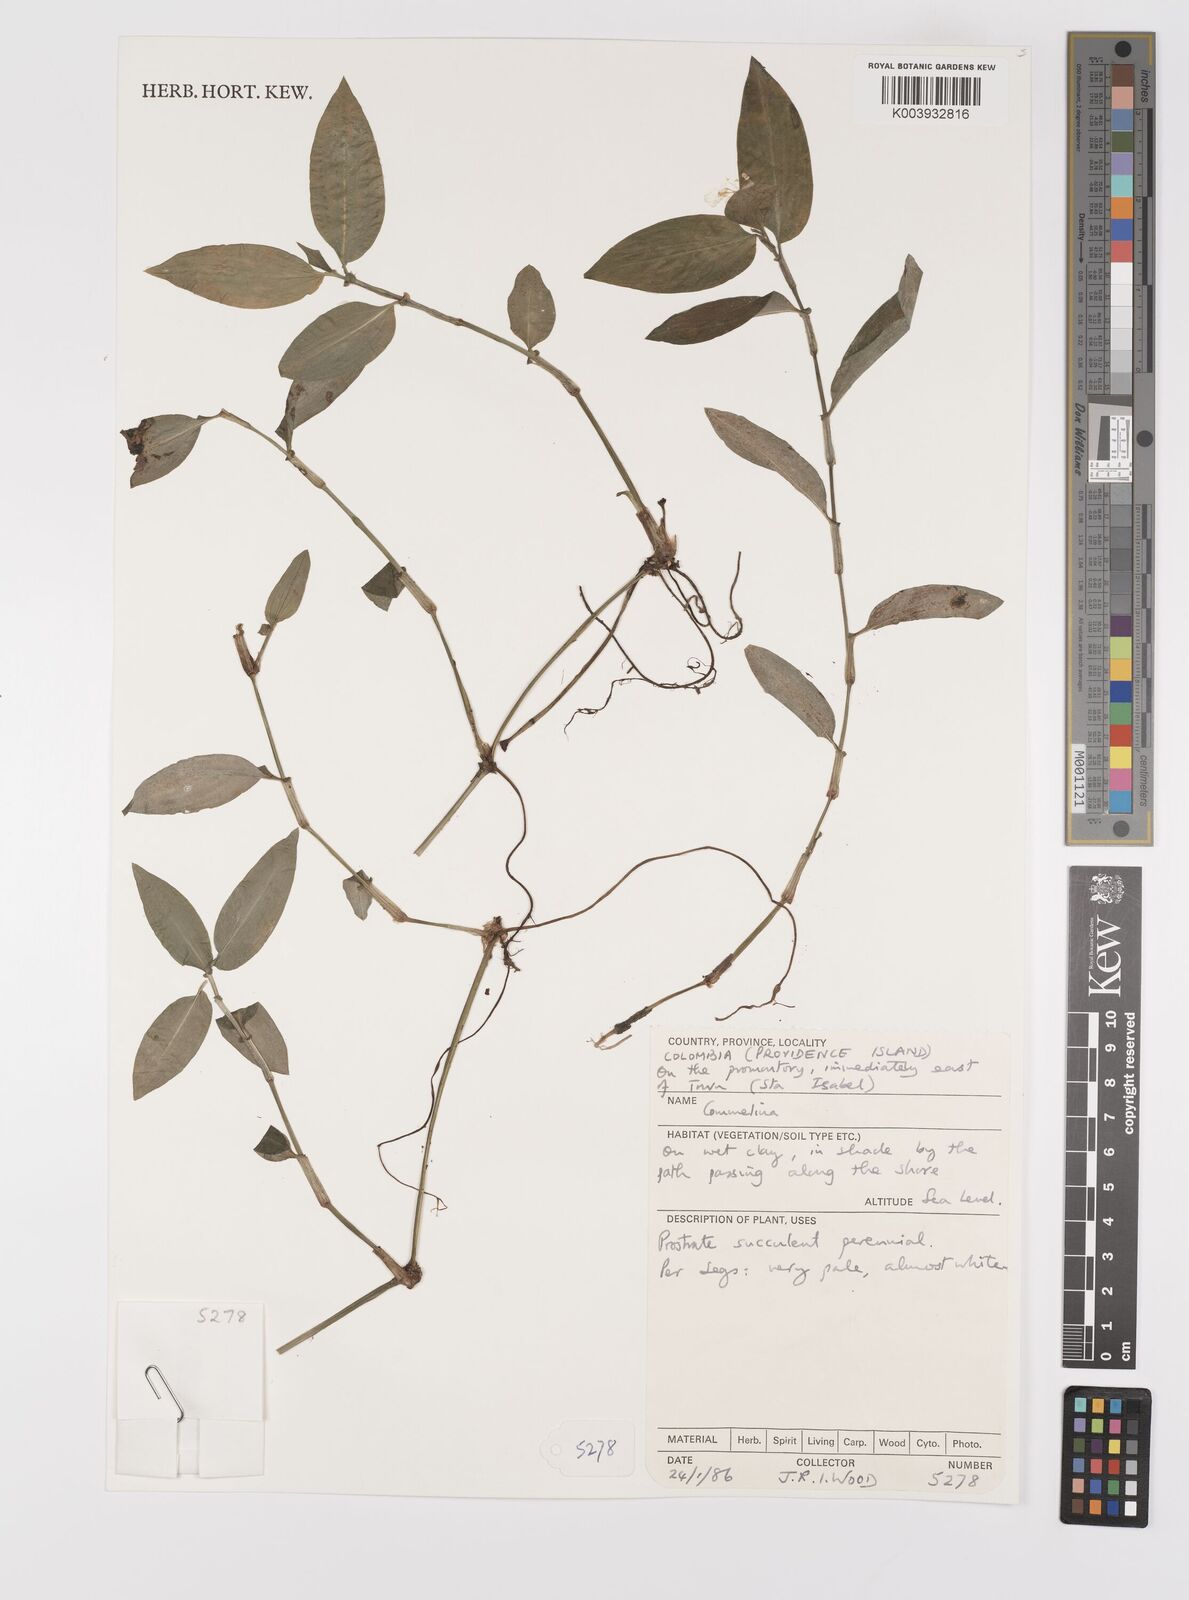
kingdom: Plantae
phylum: Tracheophyta
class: Liliopsida
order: Commelinales
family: Commelinaceae
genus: Commelina
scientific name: Commelina
